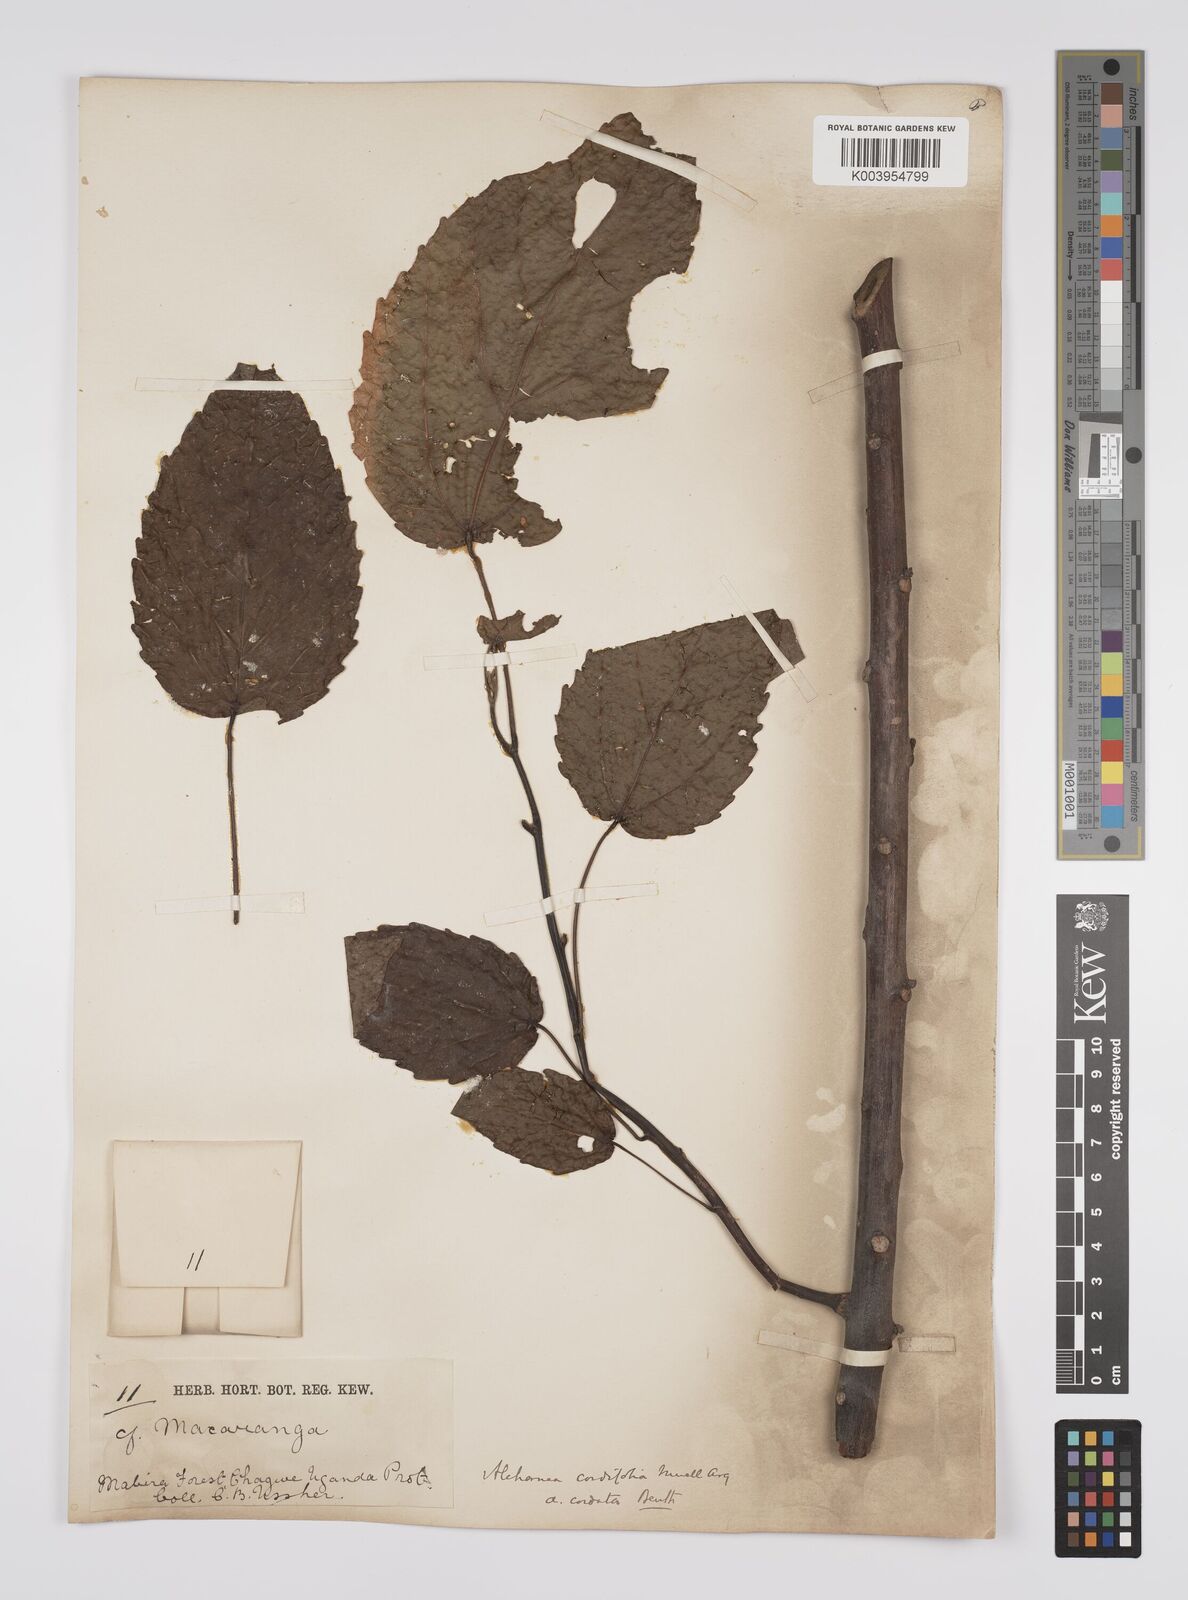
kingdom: Plantae
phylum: Tracheophyta
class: Magnoliopsida
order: Malpighiales
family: Euphorbiaceae
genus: Alchornea
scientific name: Alchornea cordifolia
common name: Christmasbush
